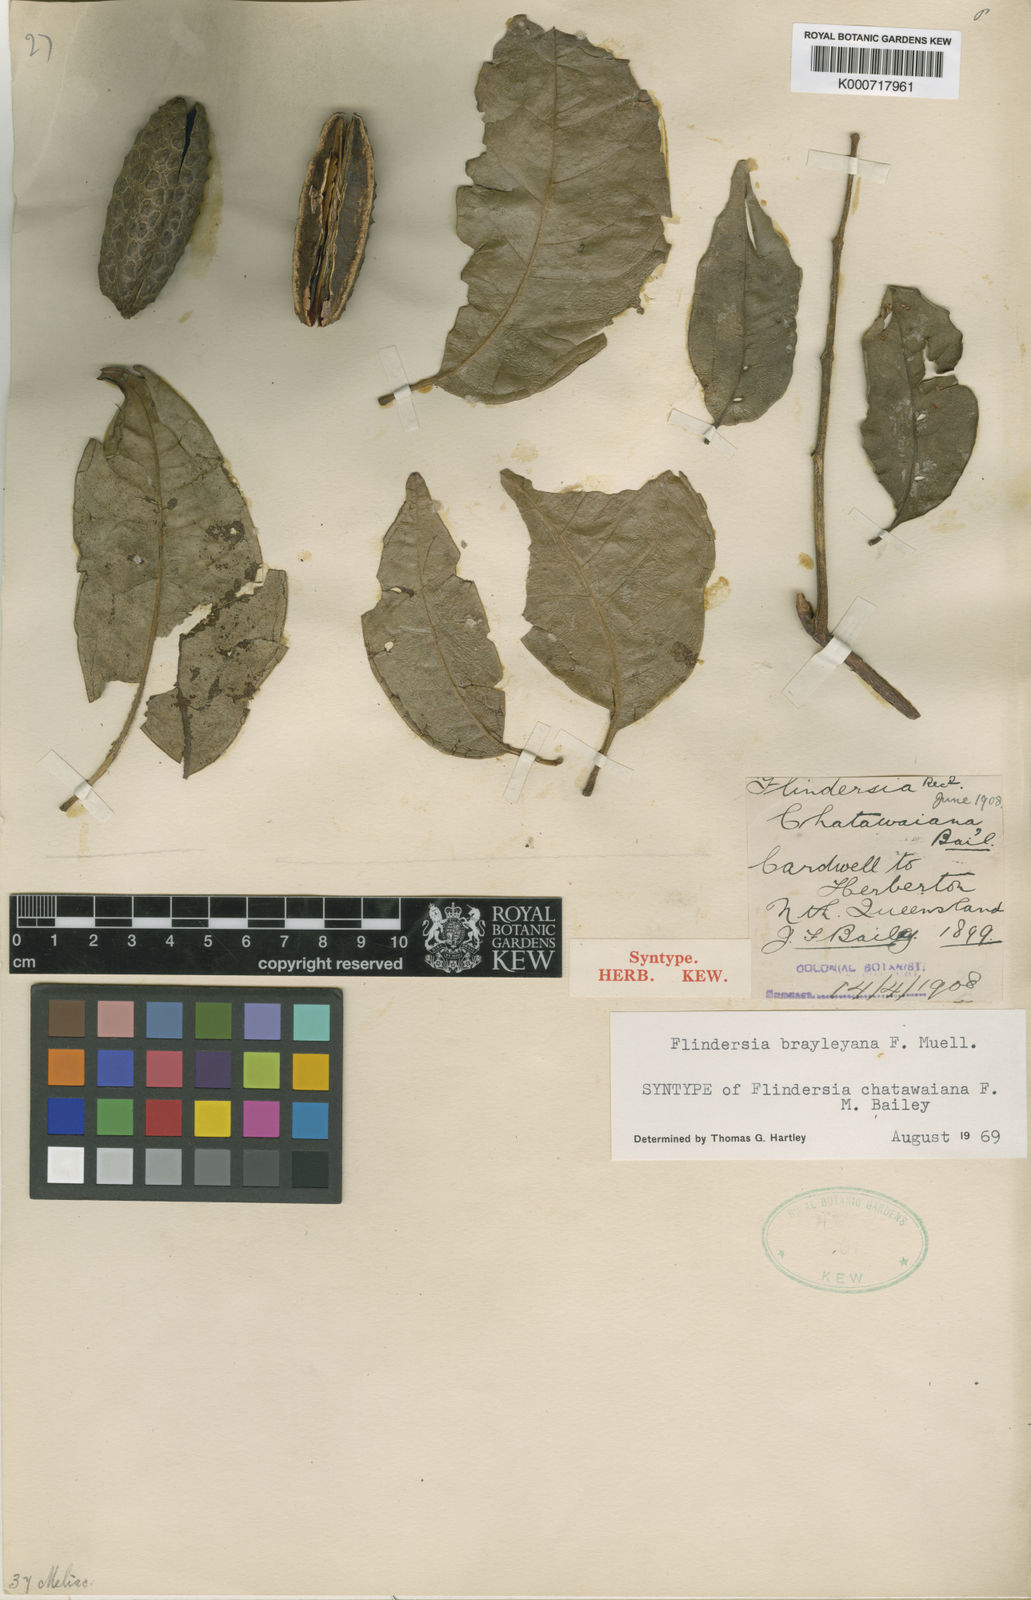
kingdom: Plantae
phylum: Tracheophyta
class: Magnoliopsida
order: Sapindales
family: Rutaceae
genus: Flindersia
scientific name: Flindersia brayleyana
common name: Queensland maple
